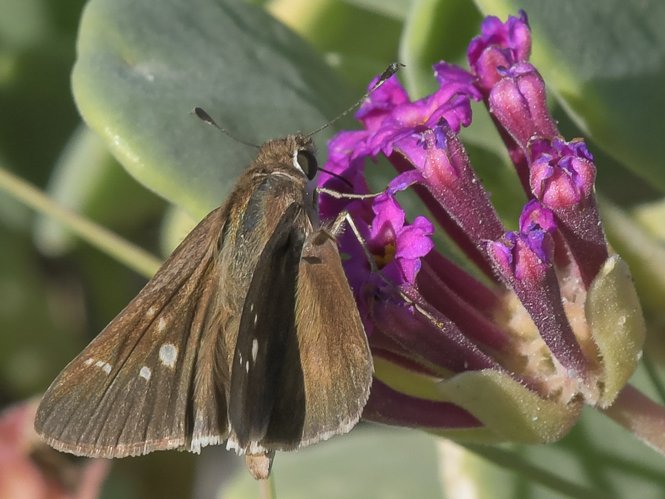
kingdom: Animalia
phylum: Arthropoda
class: Insecta
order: Lepidoptera
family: Hesperiidae
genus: Lerodea
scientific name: Lerodea eufala
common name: Eufala Skipper
